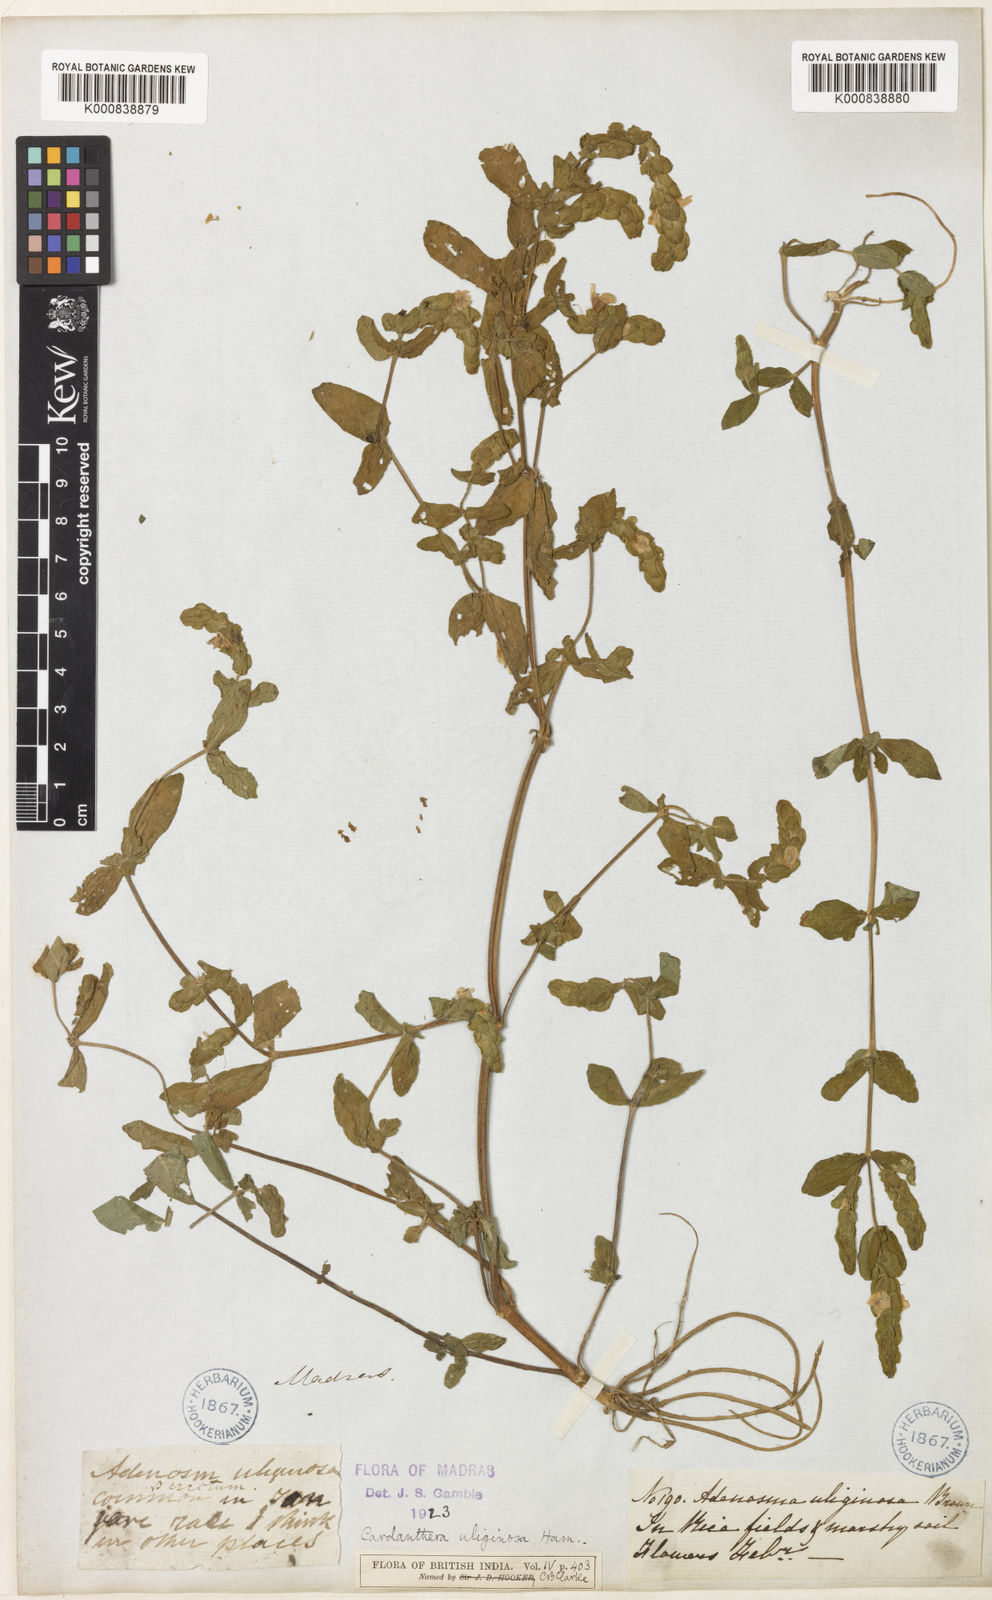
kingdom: Plantae
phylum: Tracheophyta
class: Magnoliopsida
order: Lamiales
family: Acanthaceae
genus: Staurogyne
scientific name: Staurogyne zeylanica
